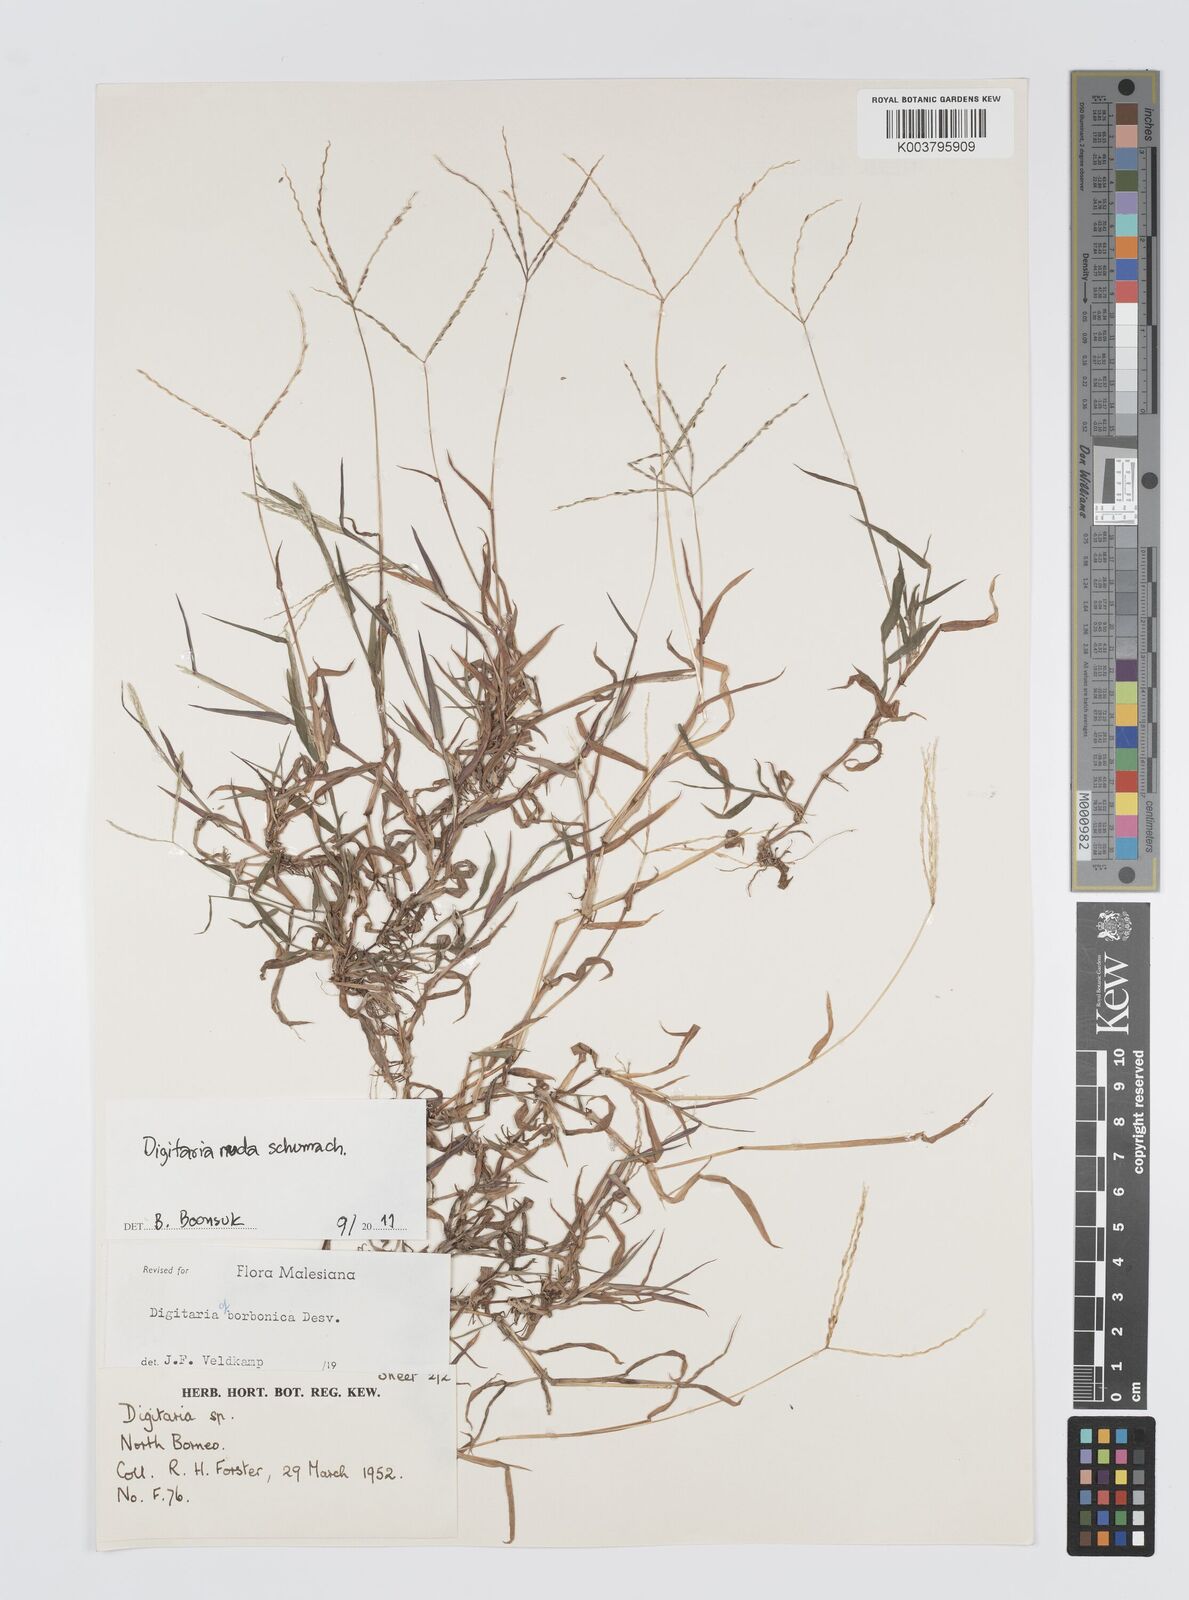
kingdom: Plantae
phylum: Tracheophyta
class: Liliopsida
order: Poales
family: Poaceae
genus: Digitaria
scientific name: Digitaria nuda
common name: Naked crabgrass
